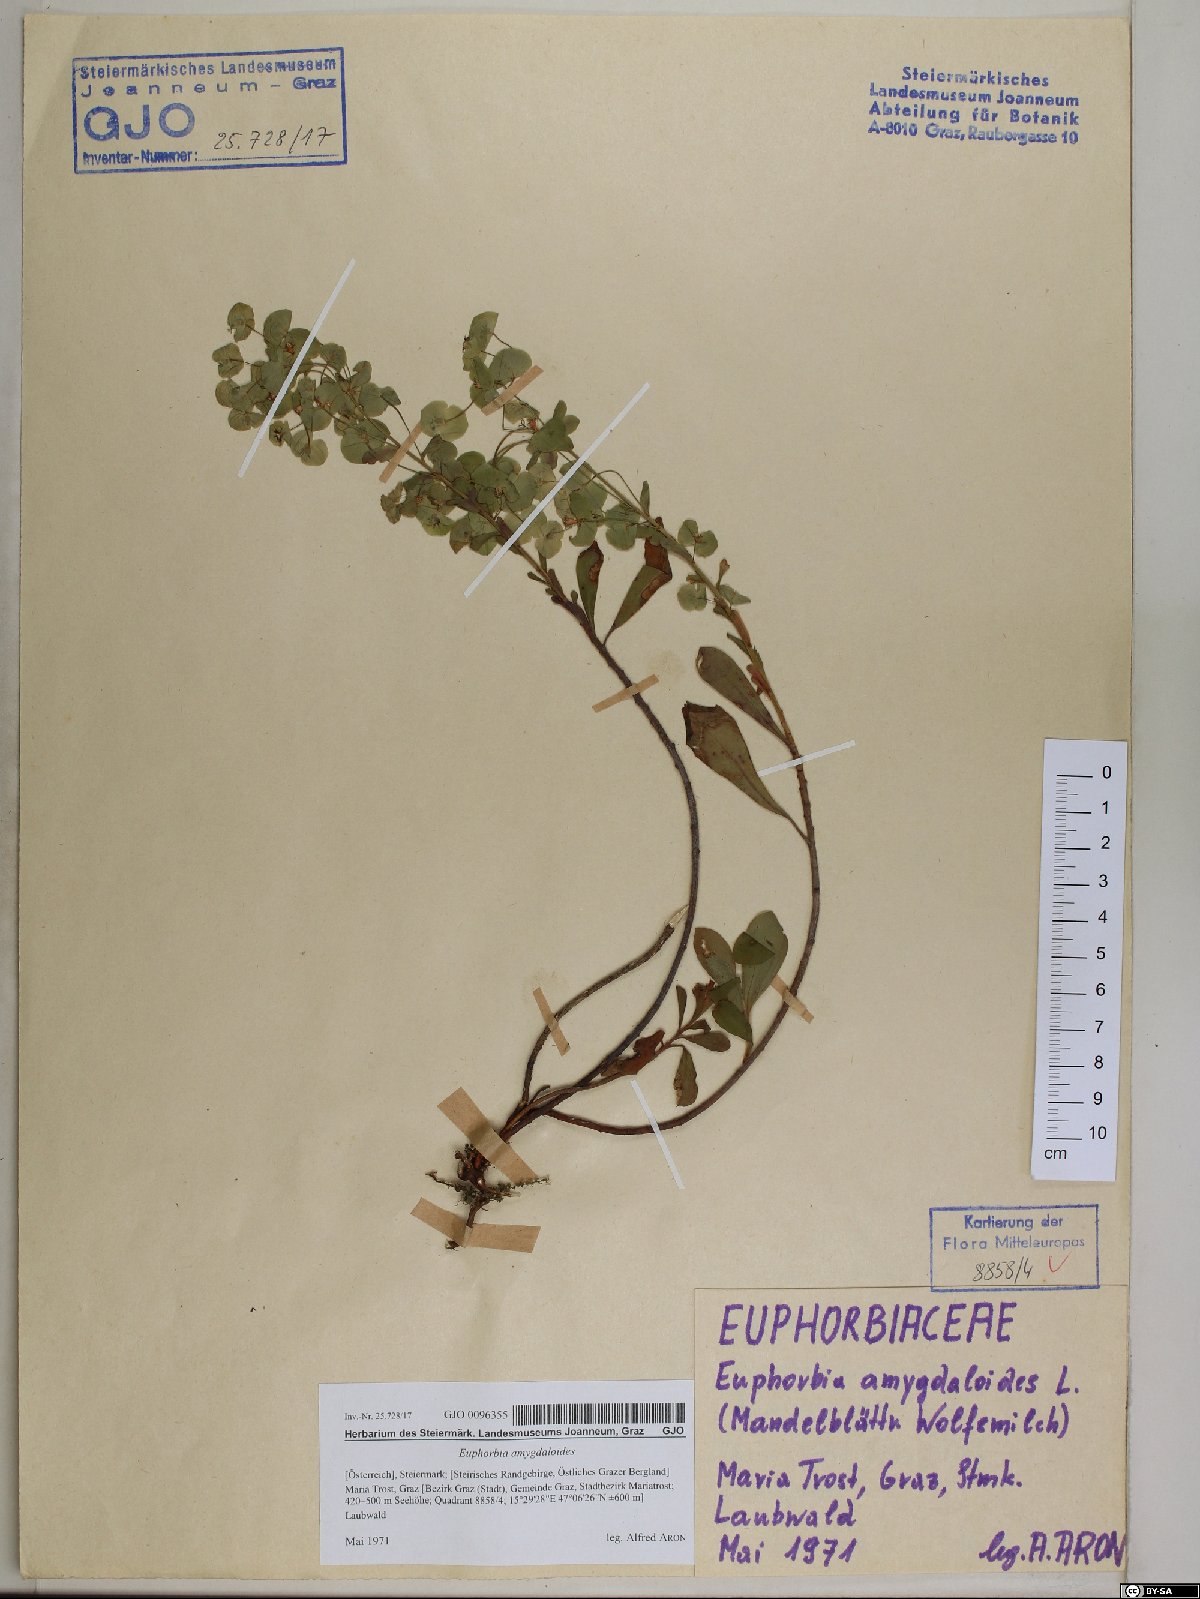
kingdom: Plantae
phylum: Tracheophyta
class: Magnoliopsida
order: Malpighiales
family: Euphorbiaceae
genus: Euphorbia
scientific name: Euphorbia amygdaloides
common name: Wood spurge
